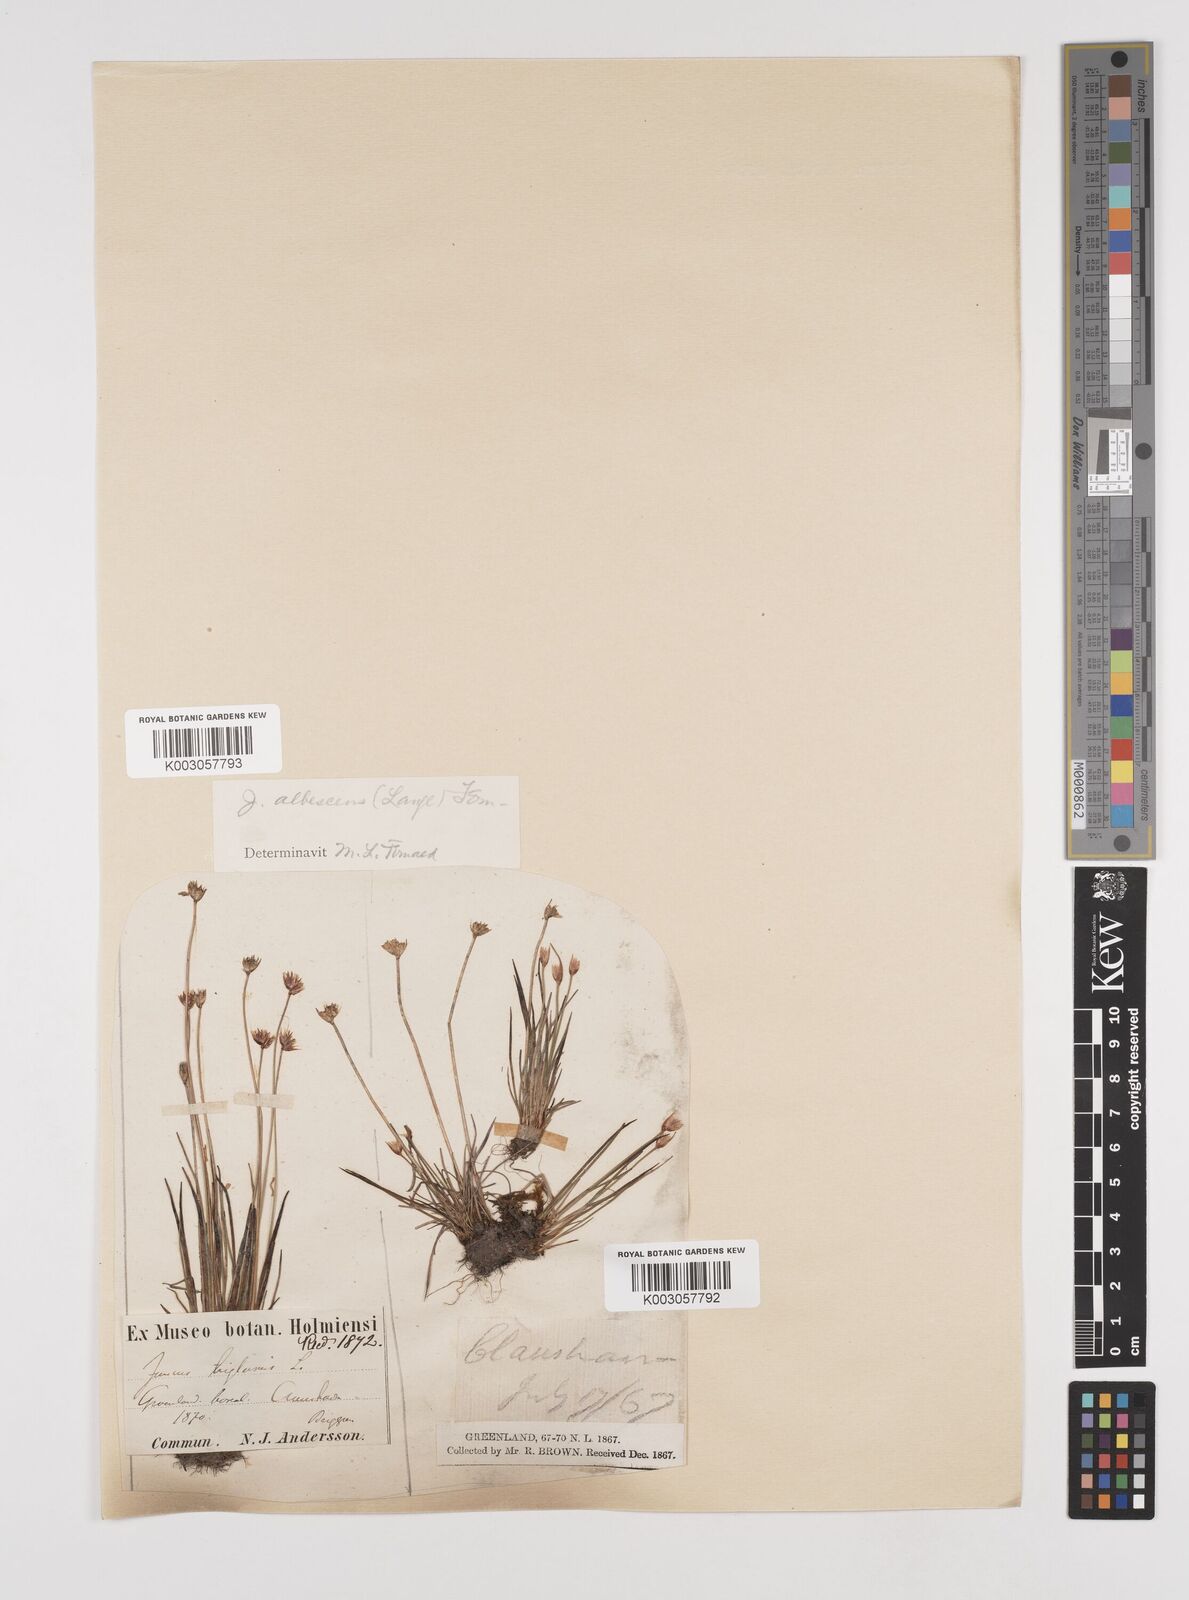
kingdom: Plantae
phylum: Tracheophyta
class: Liliopsida
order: Poales
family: Juncaceae
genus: Juncus
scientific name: Juncus triglumis
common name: Three-flowered rush
